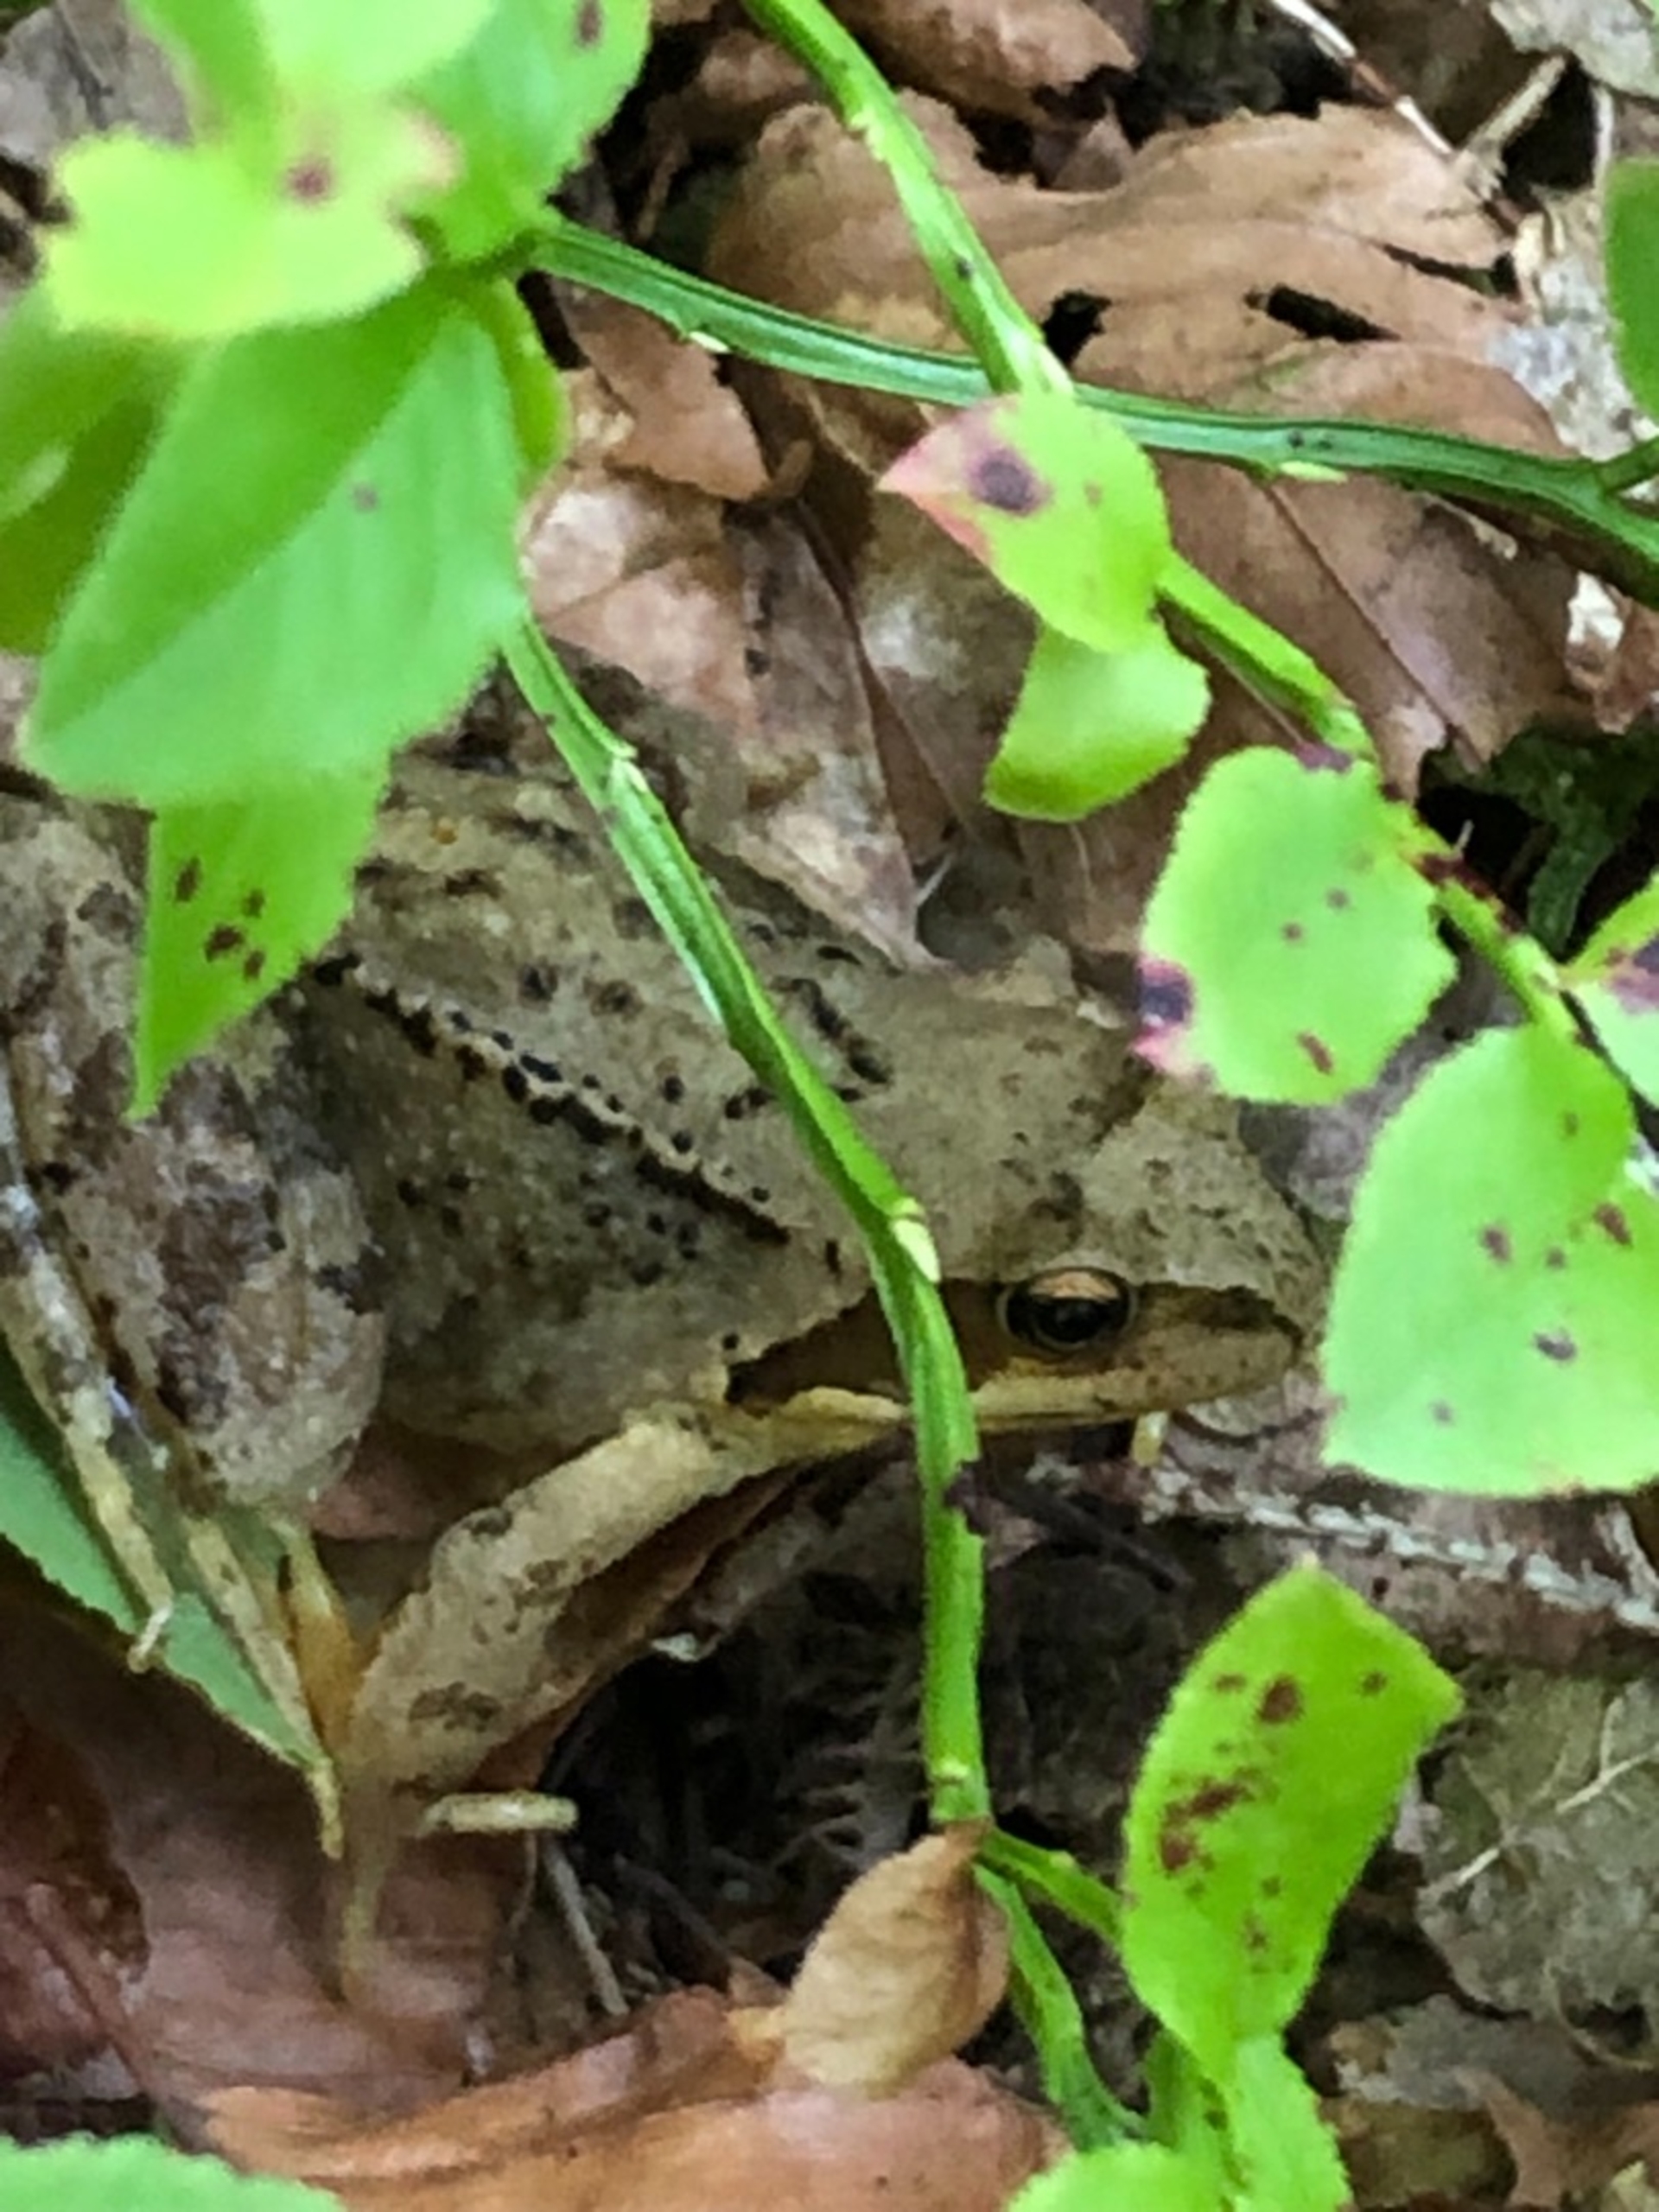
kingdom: Animalia
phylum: Chordata
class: Amphibia
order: Anura
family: Ranidae
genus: Rana
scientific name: Rana temporaria
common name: Butsnudet frø
